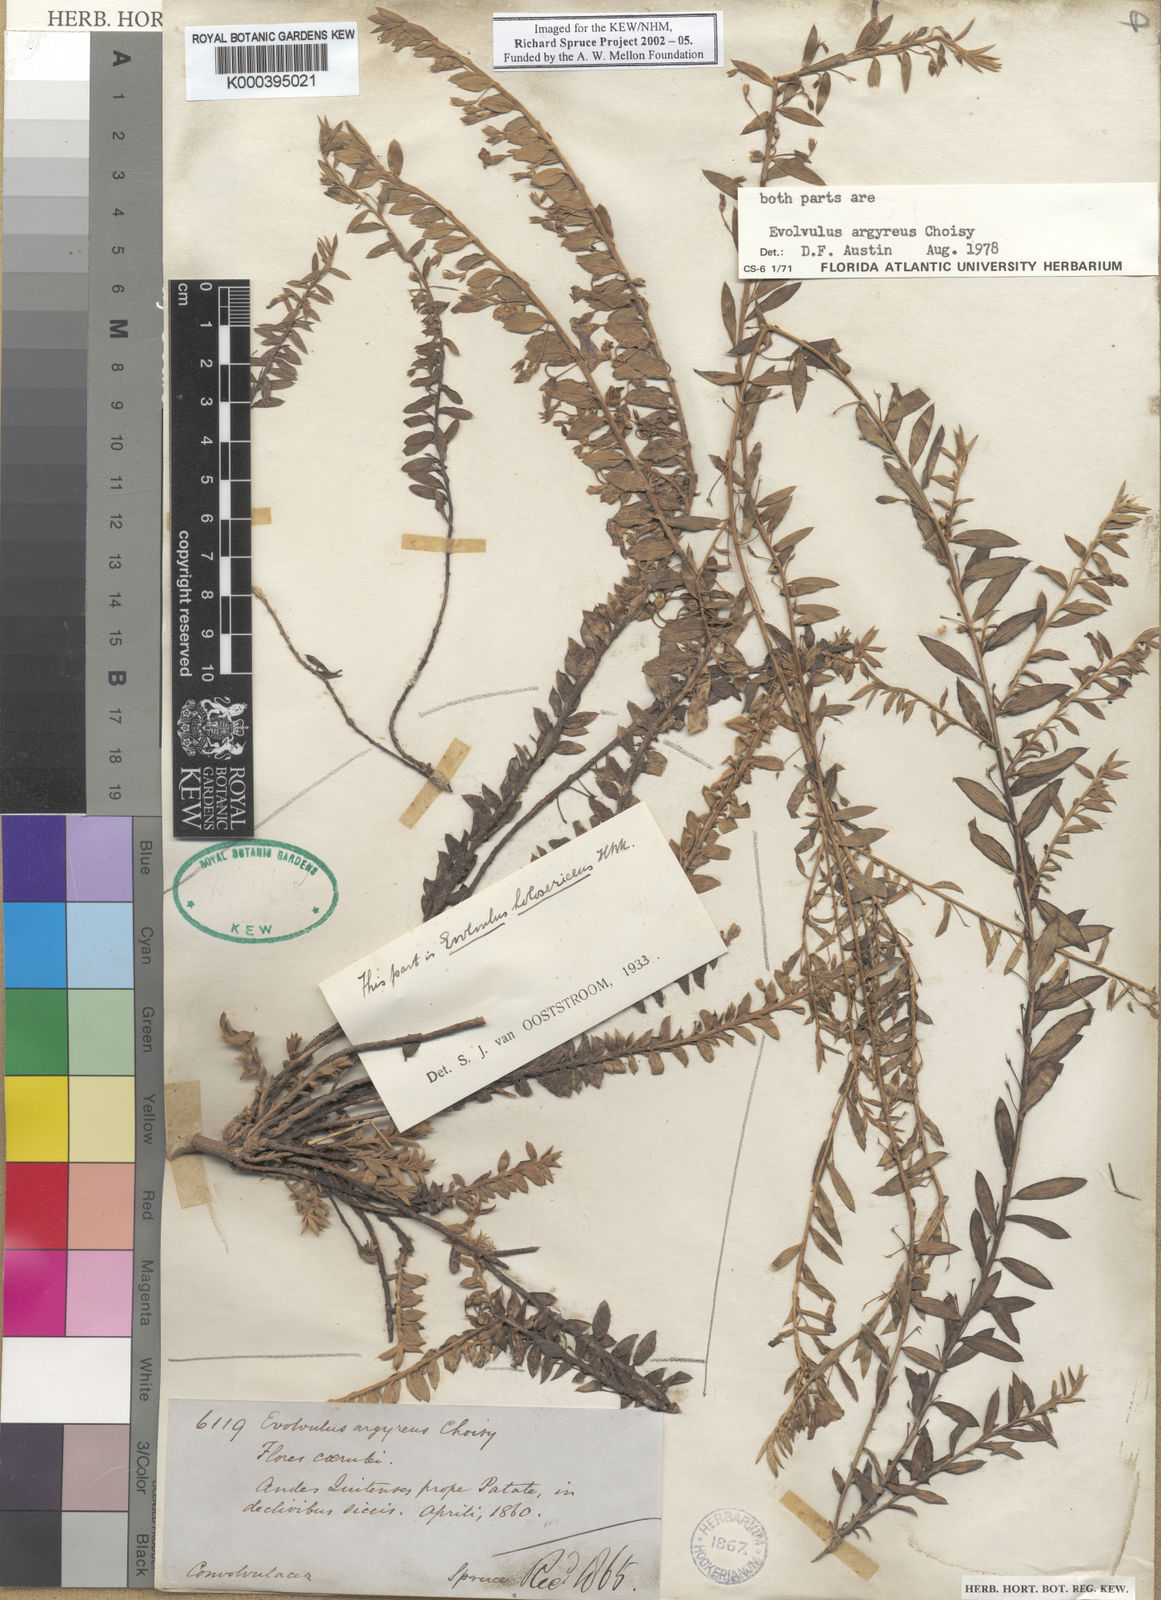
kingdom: Plantae
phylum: Tracheophyta
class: Magnoliopsida
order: Solanales
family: Convolvulaceae
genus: Evolvulus
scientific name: Evolvulus argyreus
